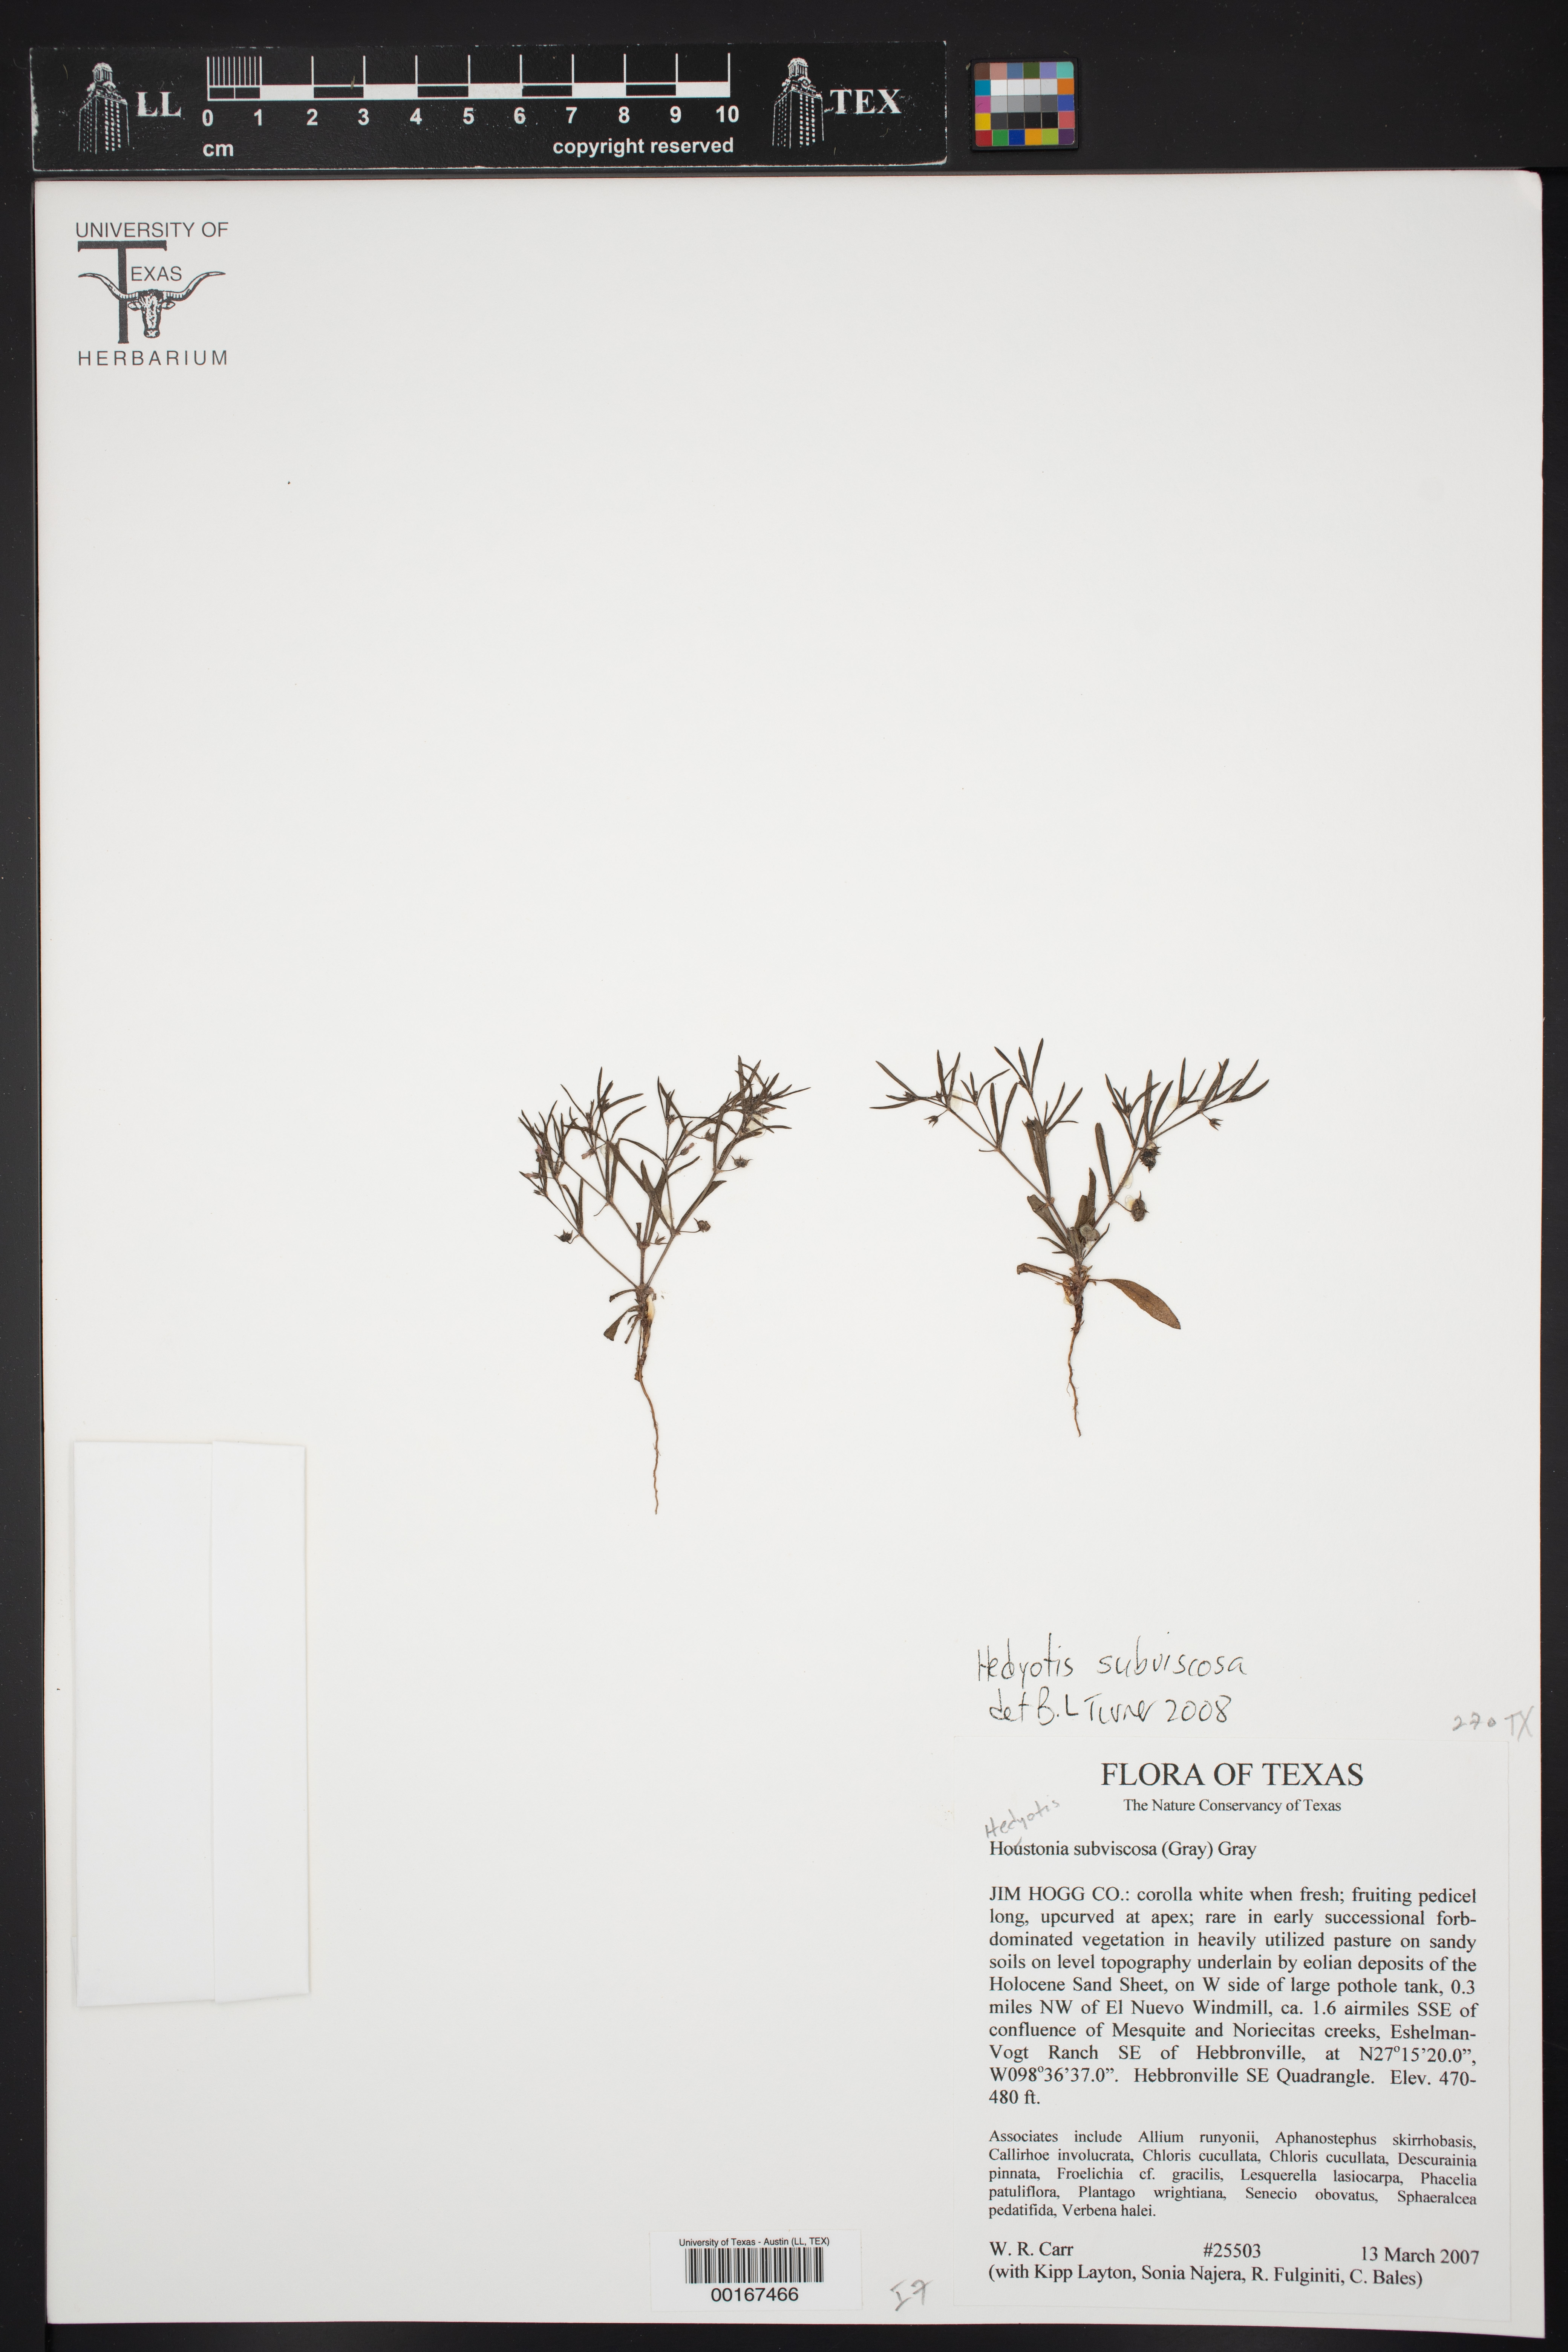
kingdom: Plantae
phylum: Tracheophyta
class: Magnoliopsida
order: Gentianales
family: Rubiaceae
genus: Houstonia
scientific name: Houstonia subviscosa
